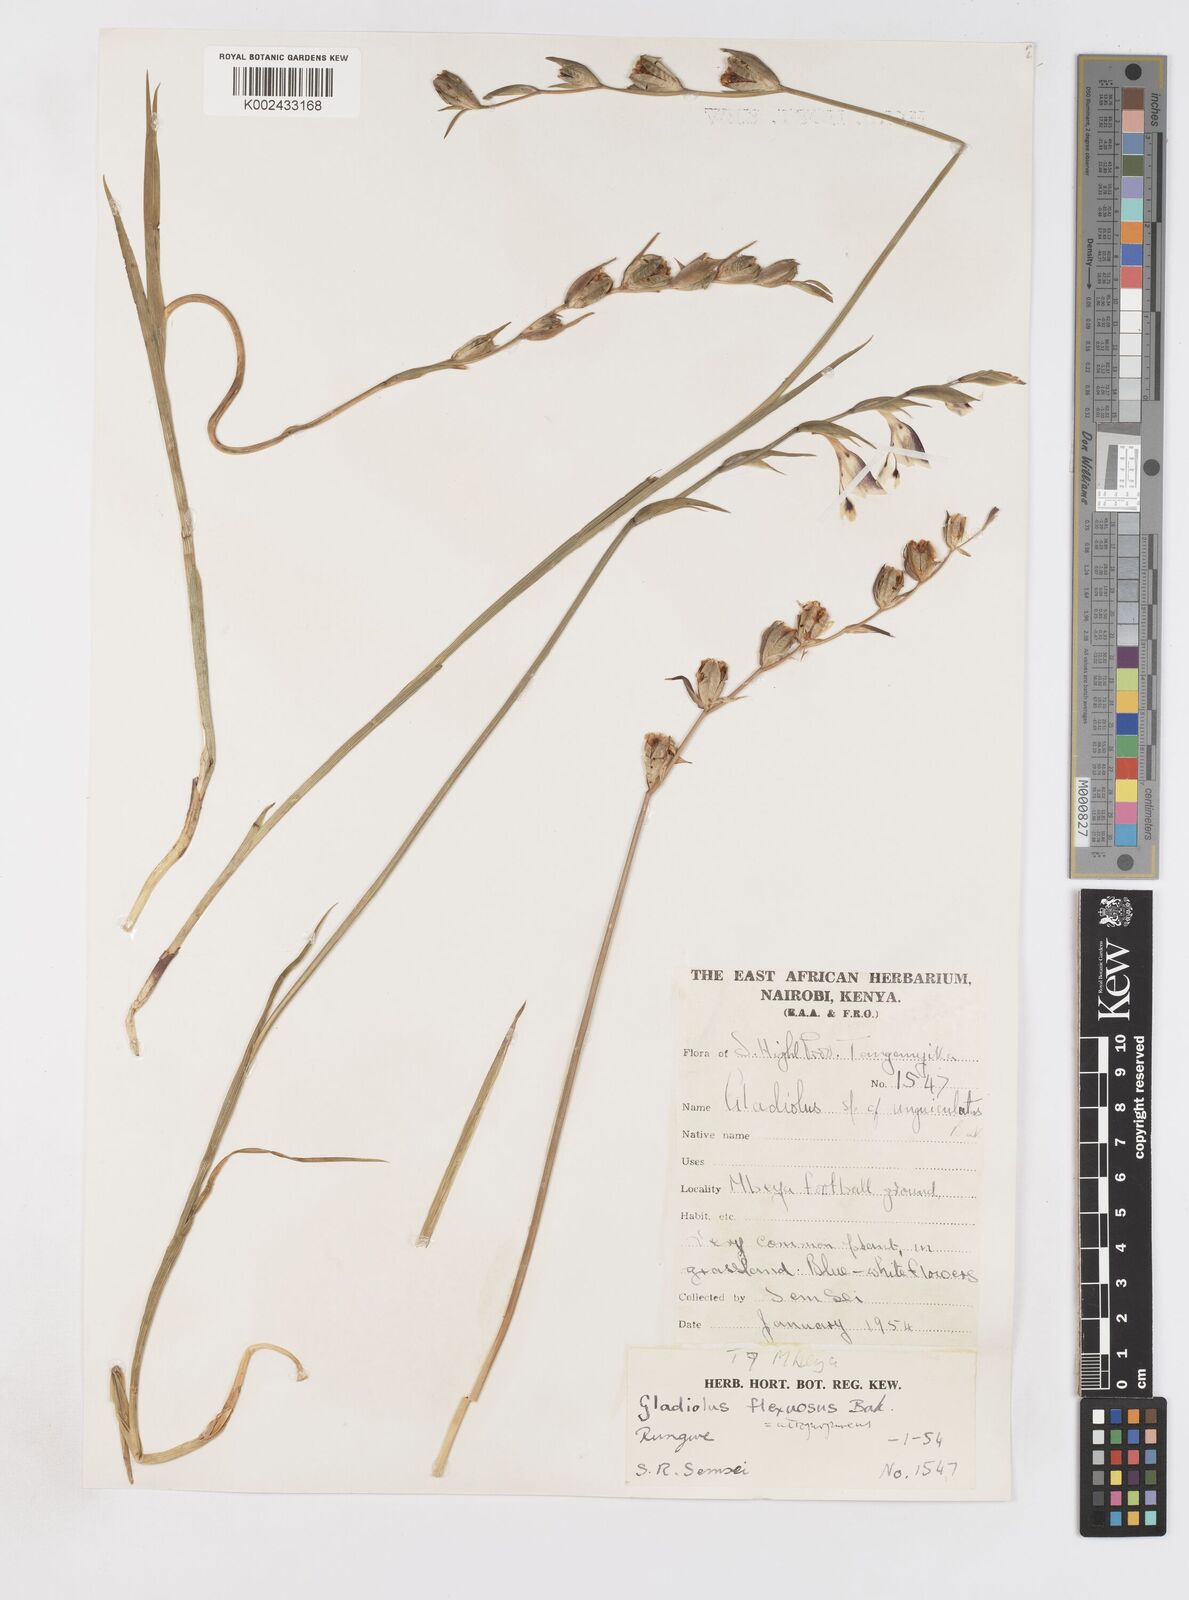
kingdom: Plantae
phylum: Tracheophyta
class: Liliopsida
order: Asparagales
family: Iridaceae
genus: Gladiolus
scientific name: Gladiolus atropurpureus
